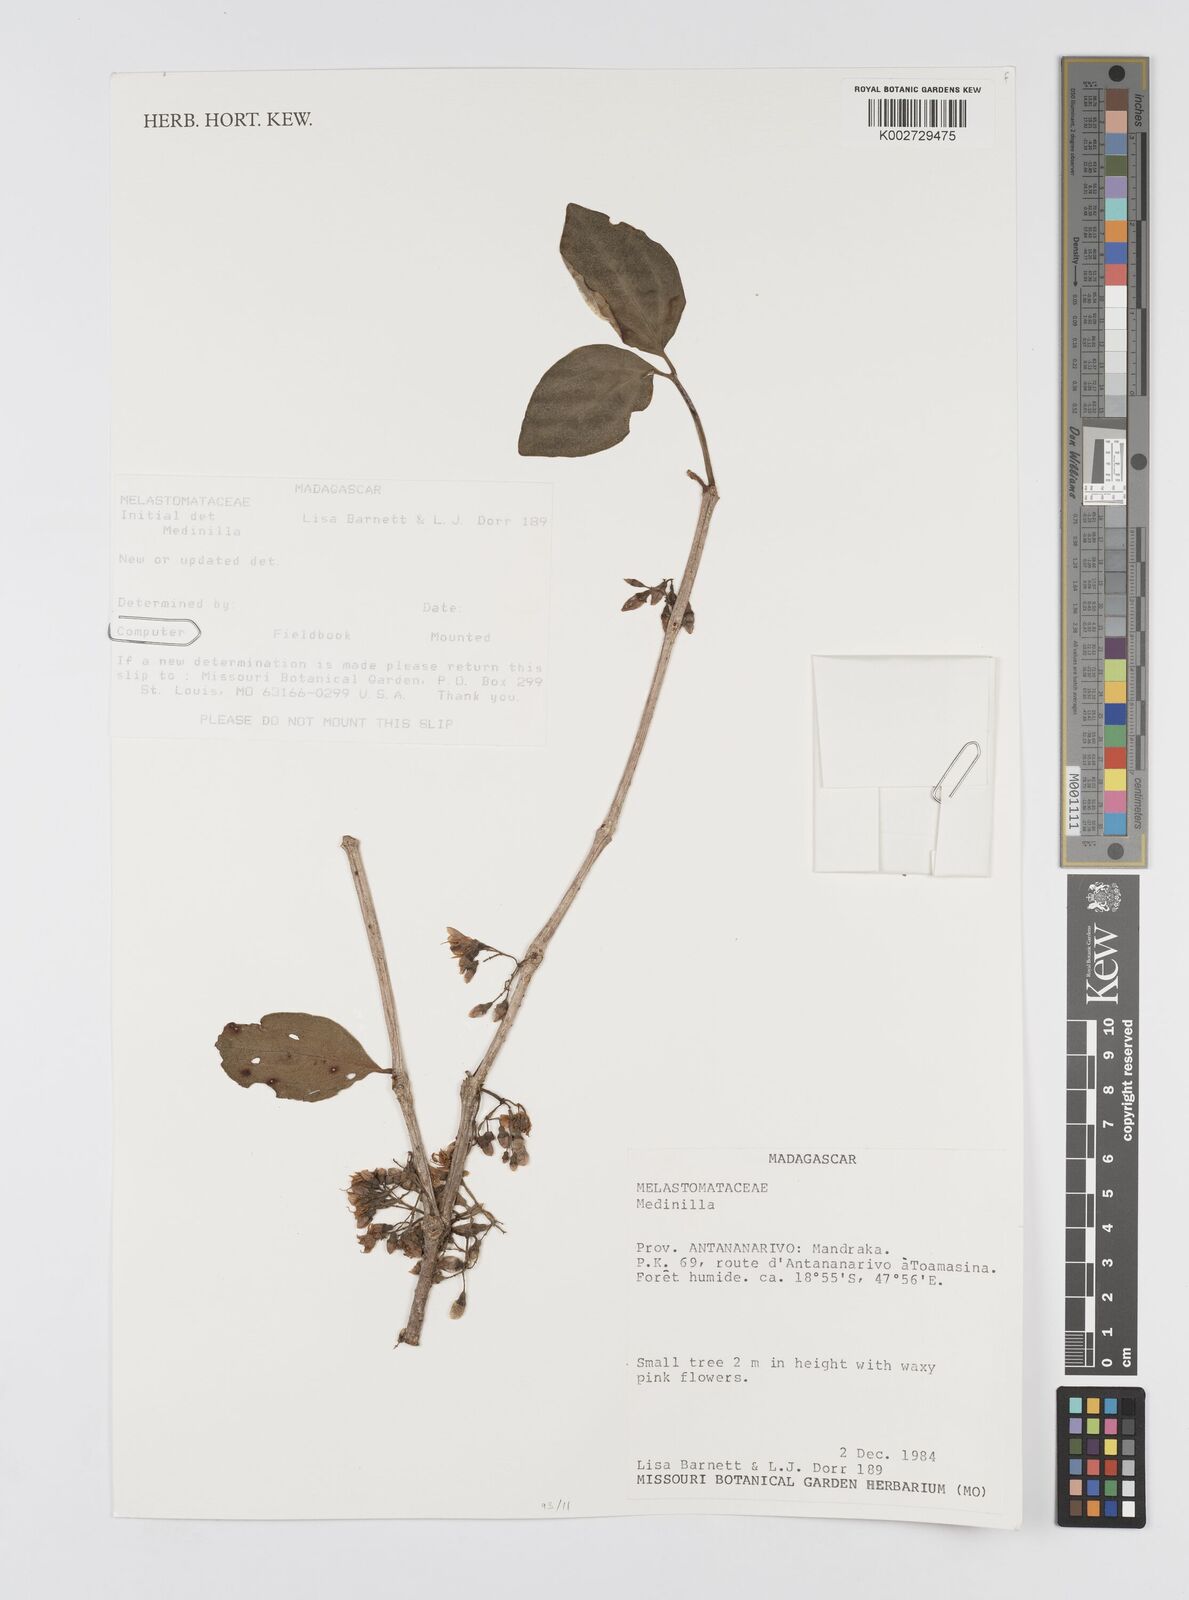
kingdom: Plantae
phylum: Tracheophyta
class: Magnoliopsida
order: Myrtales
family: Melastomataceae
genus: Medinilla
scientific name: Medinilla
